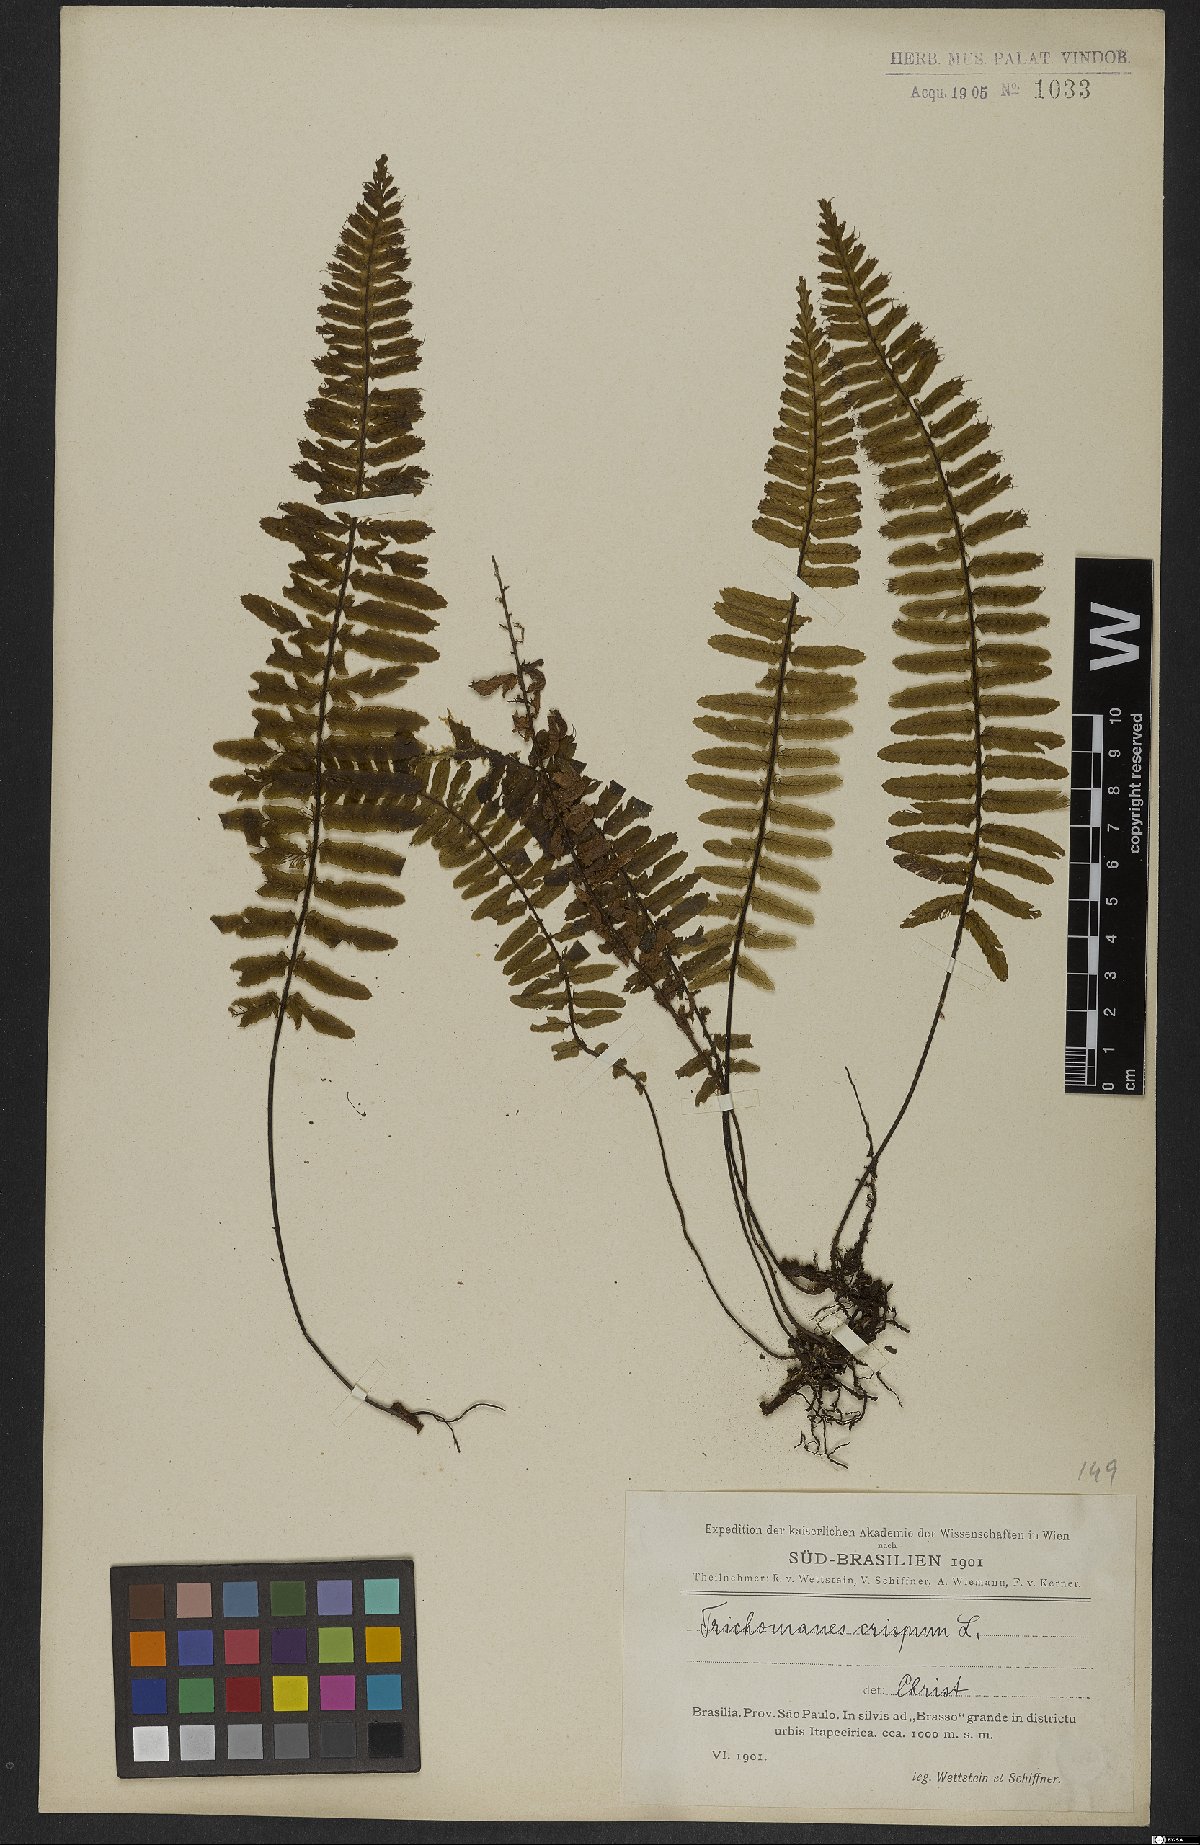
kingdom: Plantae
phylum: Tracheophyta
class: Polypodiopsida
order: Hymenophyllales
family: Hymenophyllaceae
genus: Trichomanes
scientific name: Trichomanes pellucens
